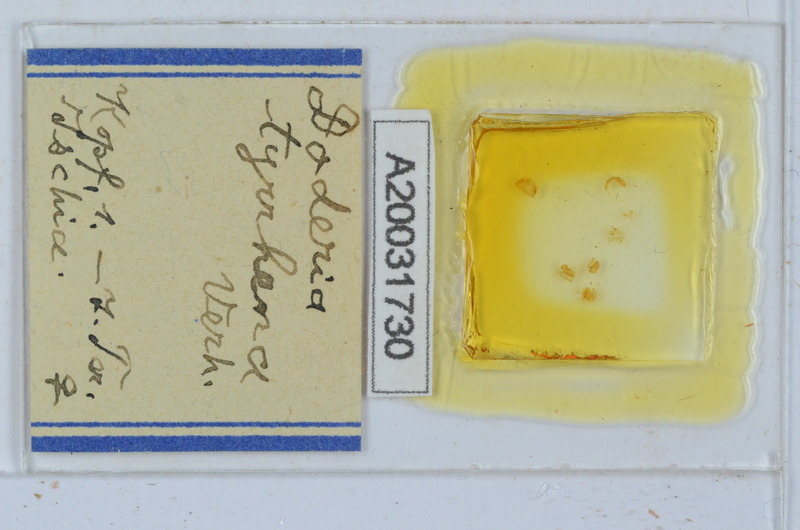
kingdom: Animalia
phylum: Arthropoda
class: Diplopoda
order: Glomerida
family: Glomeridae
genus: Doderia
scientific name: Doderia tyrrhena
